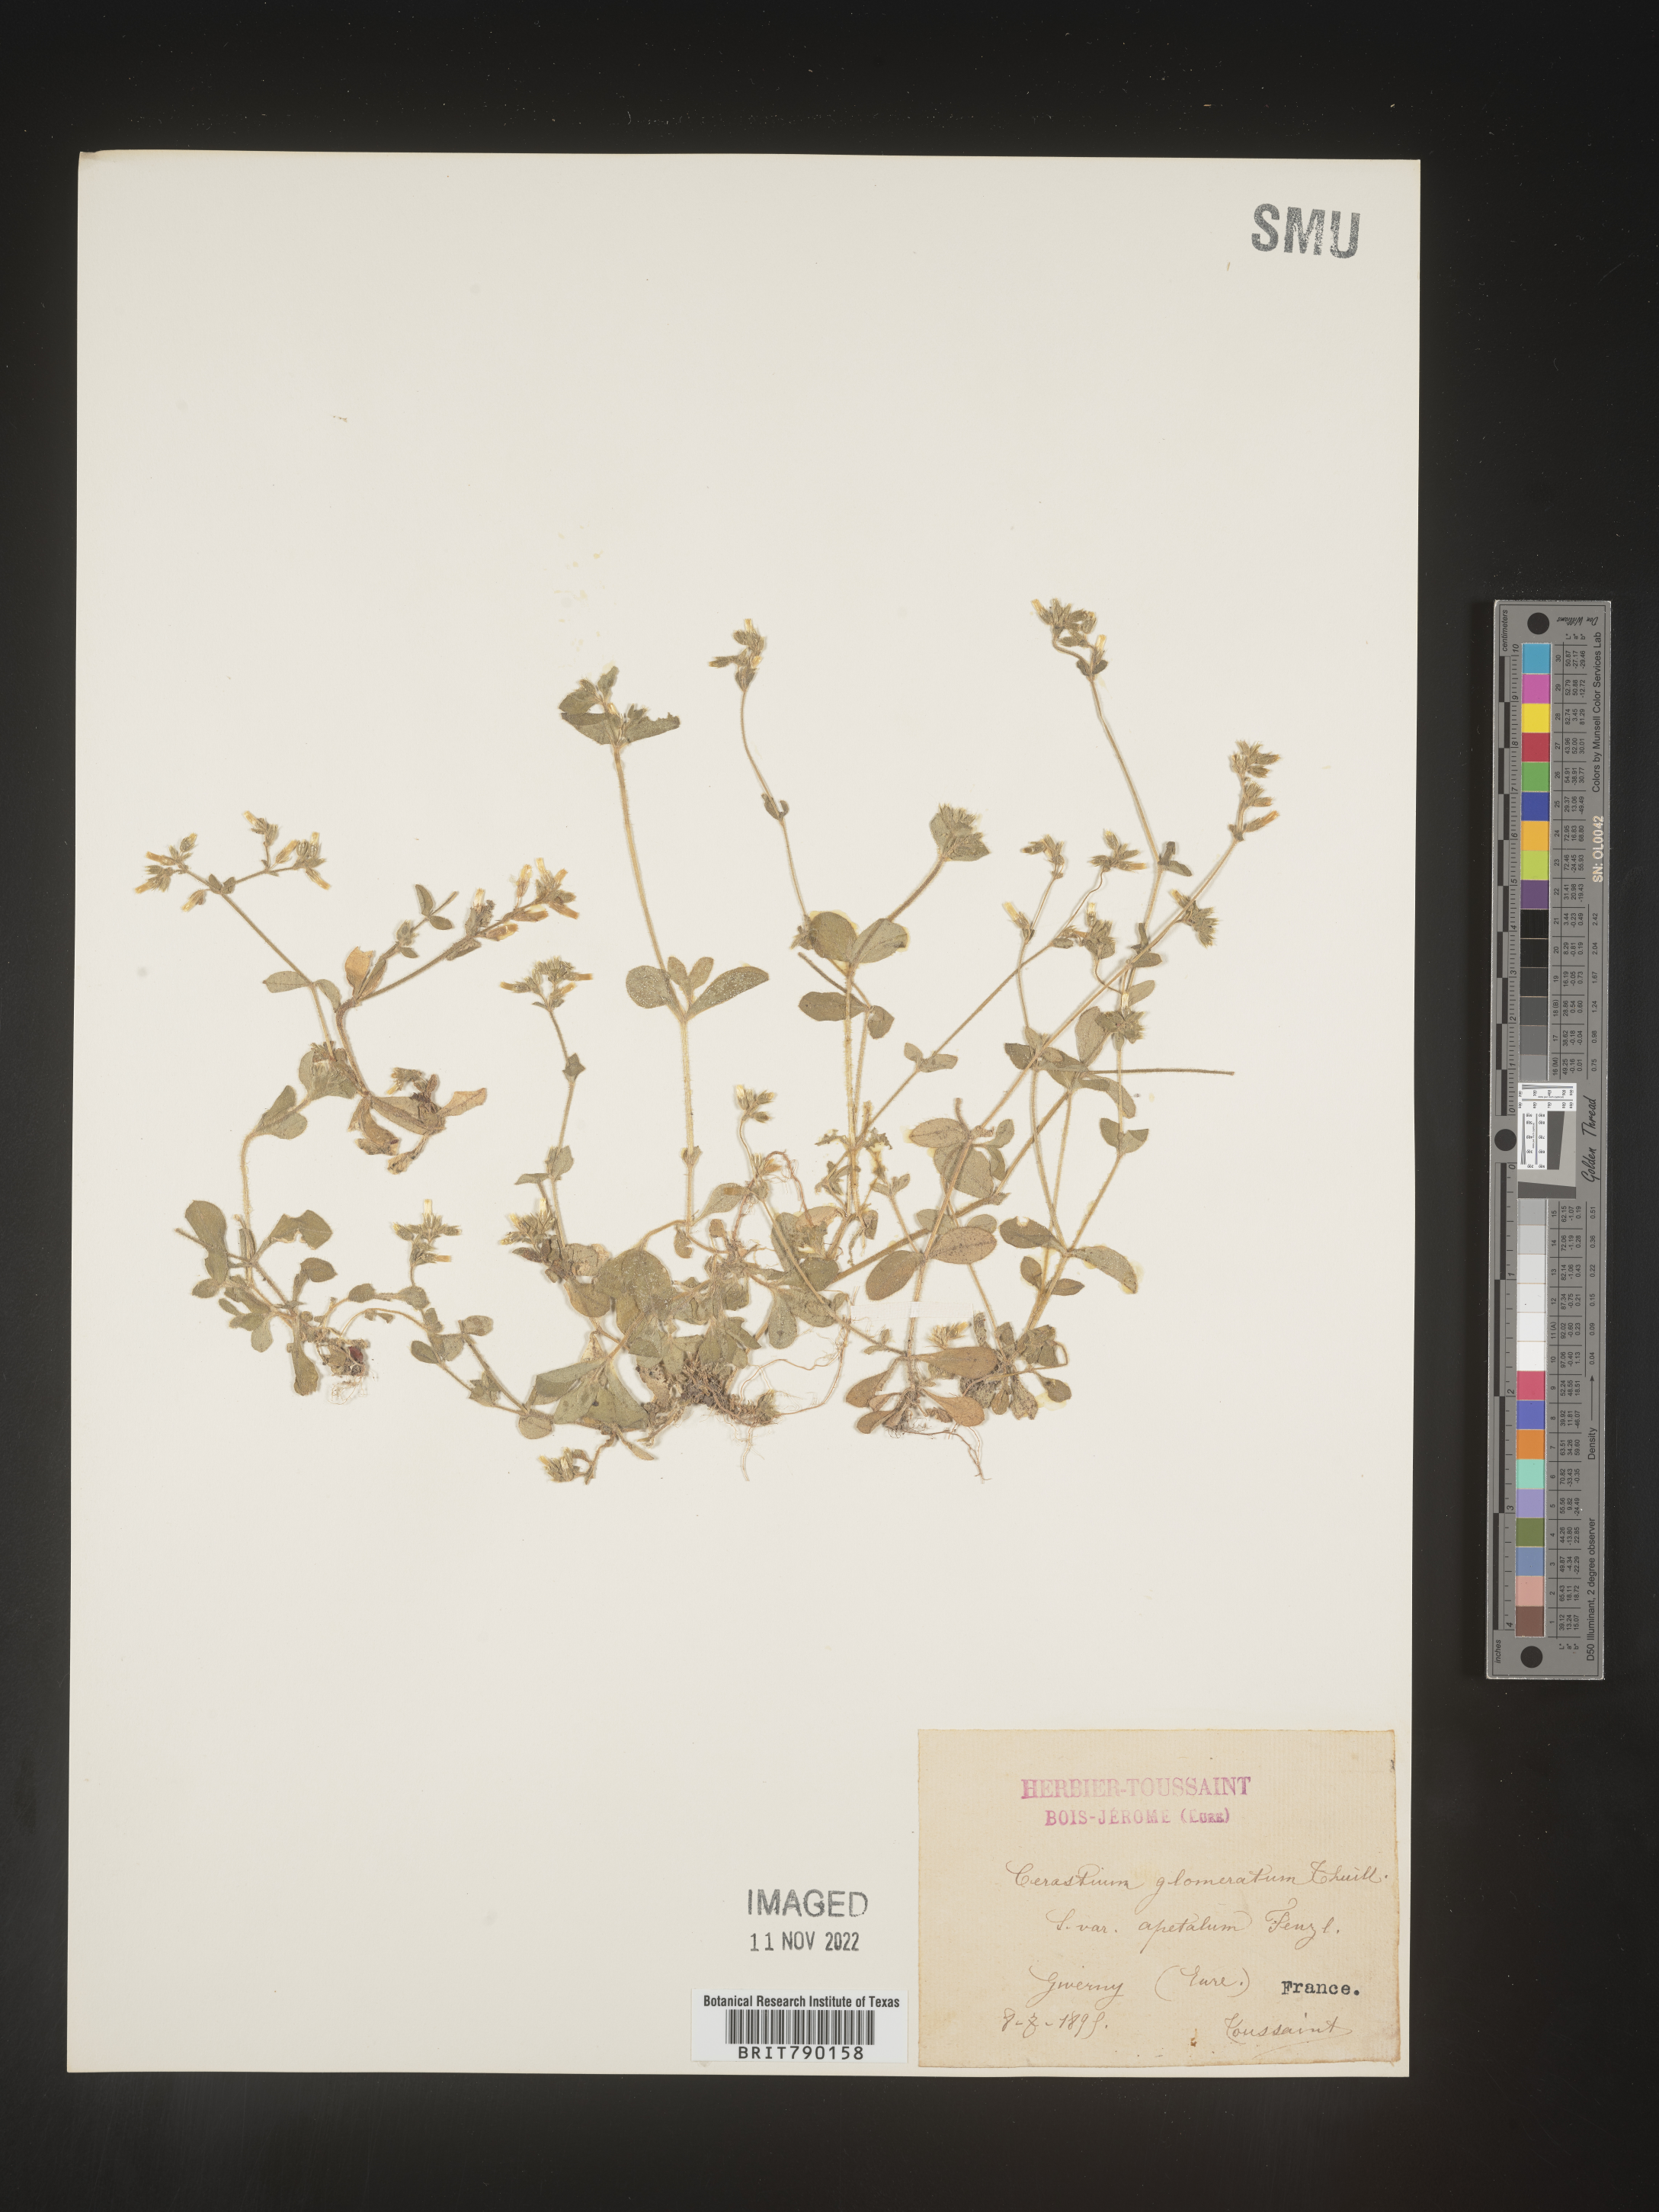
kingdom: Plantae
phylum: Tracheophyta
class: Magnoliopsida
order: Caryophyllales
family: Caryophyllaceae
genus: Cerastium
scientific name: Cerastium
